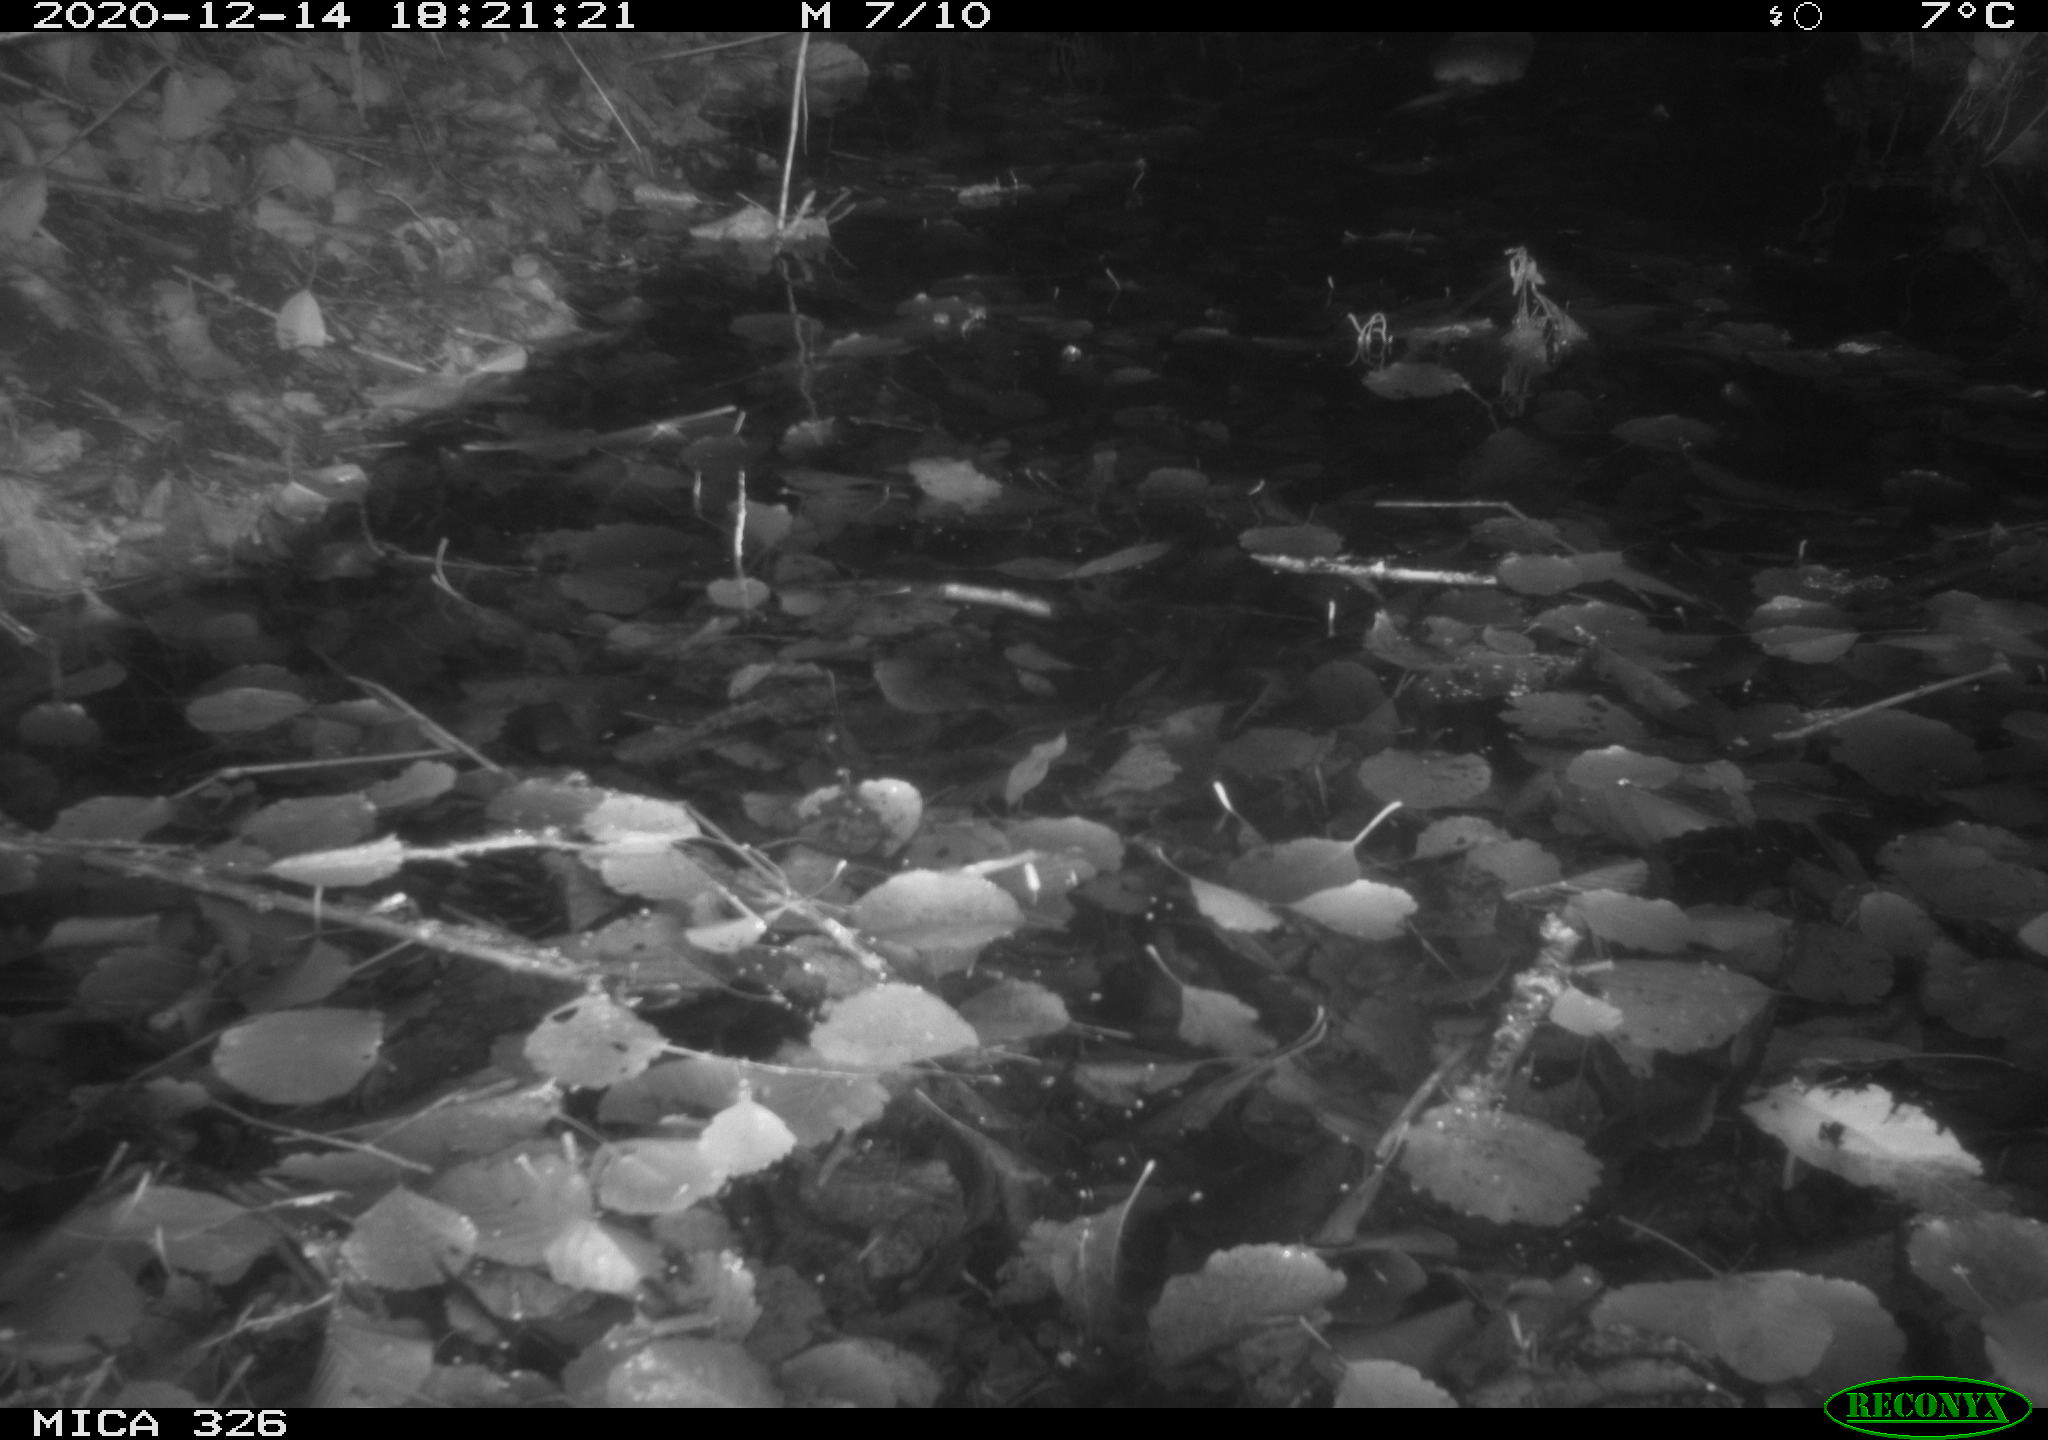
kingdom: Animalia
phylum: Chordata
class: Mammalia
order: Rodentia
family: Cricetidae
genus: Ondatra
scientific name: Ondatra zibethicus
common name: Muskrat
